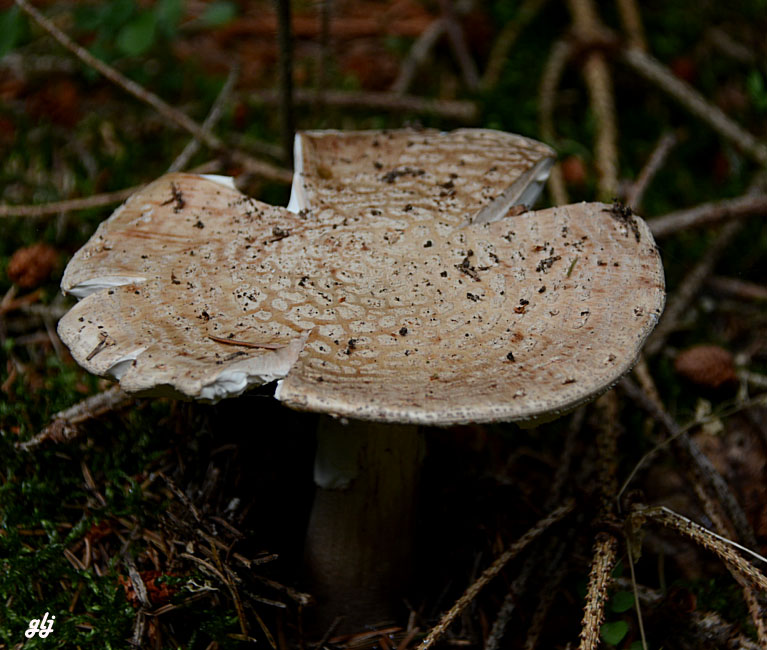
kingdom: Fungi
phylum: Basidiomycota
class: Agaricomycetes
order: Agaricales
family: Amanitaceae
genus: Amanita
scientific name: Amanita rubescens
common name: rødmende fluesvamp
